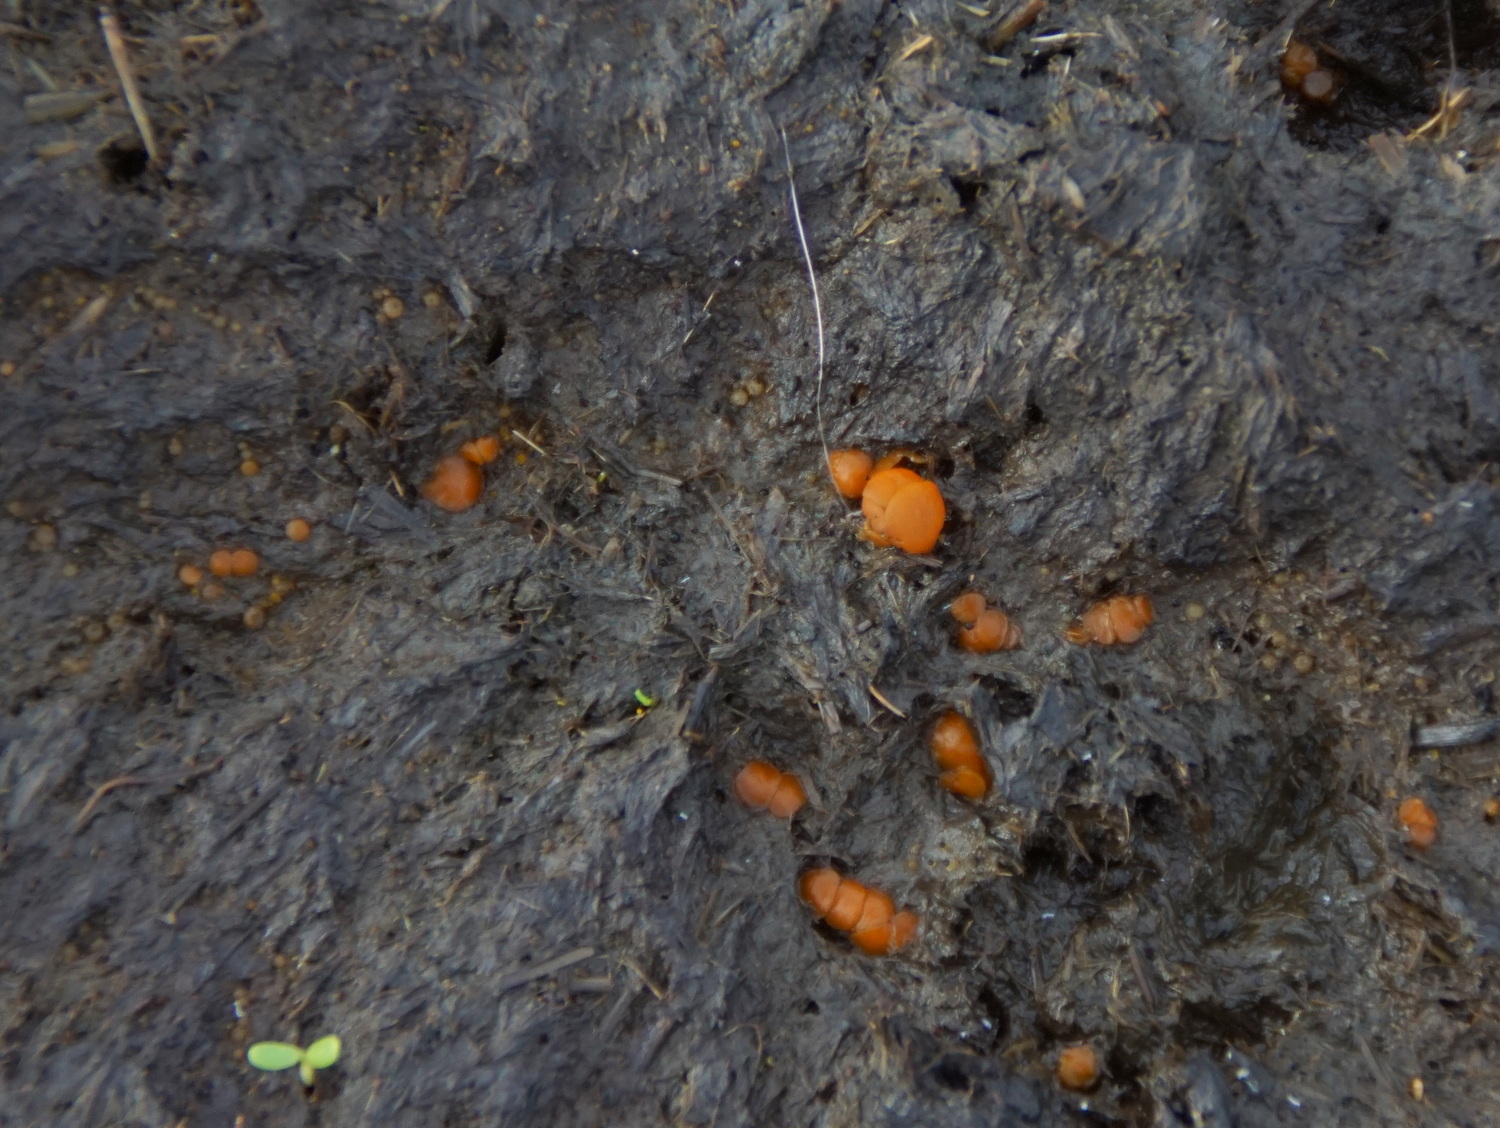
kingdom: Fungi
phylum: Ascomycota
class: Pezizomycetes
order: Pezizales
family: Pyronemataceae
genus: Cheilymenia
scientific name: Cheilymenia granulata
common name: møgbæger
